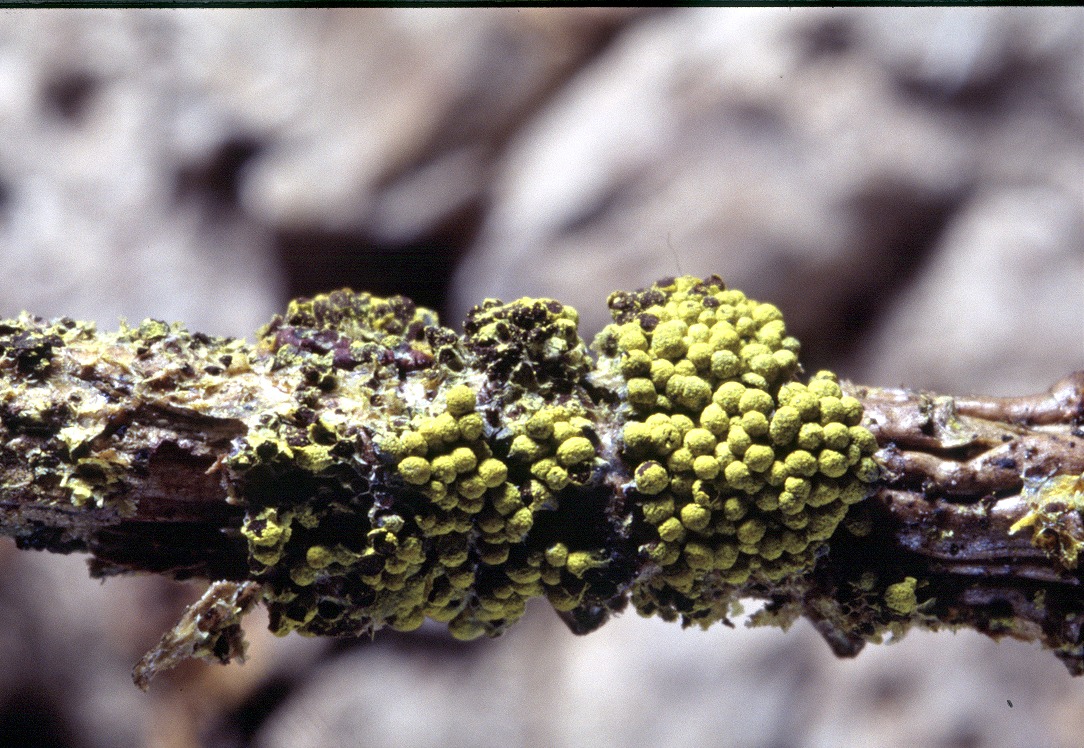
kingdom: Protozoa
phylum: Mycetozoa
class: Myxomycetes
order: Physarales
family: Physaraceae
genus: Physarum
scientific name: Physarum virescens
